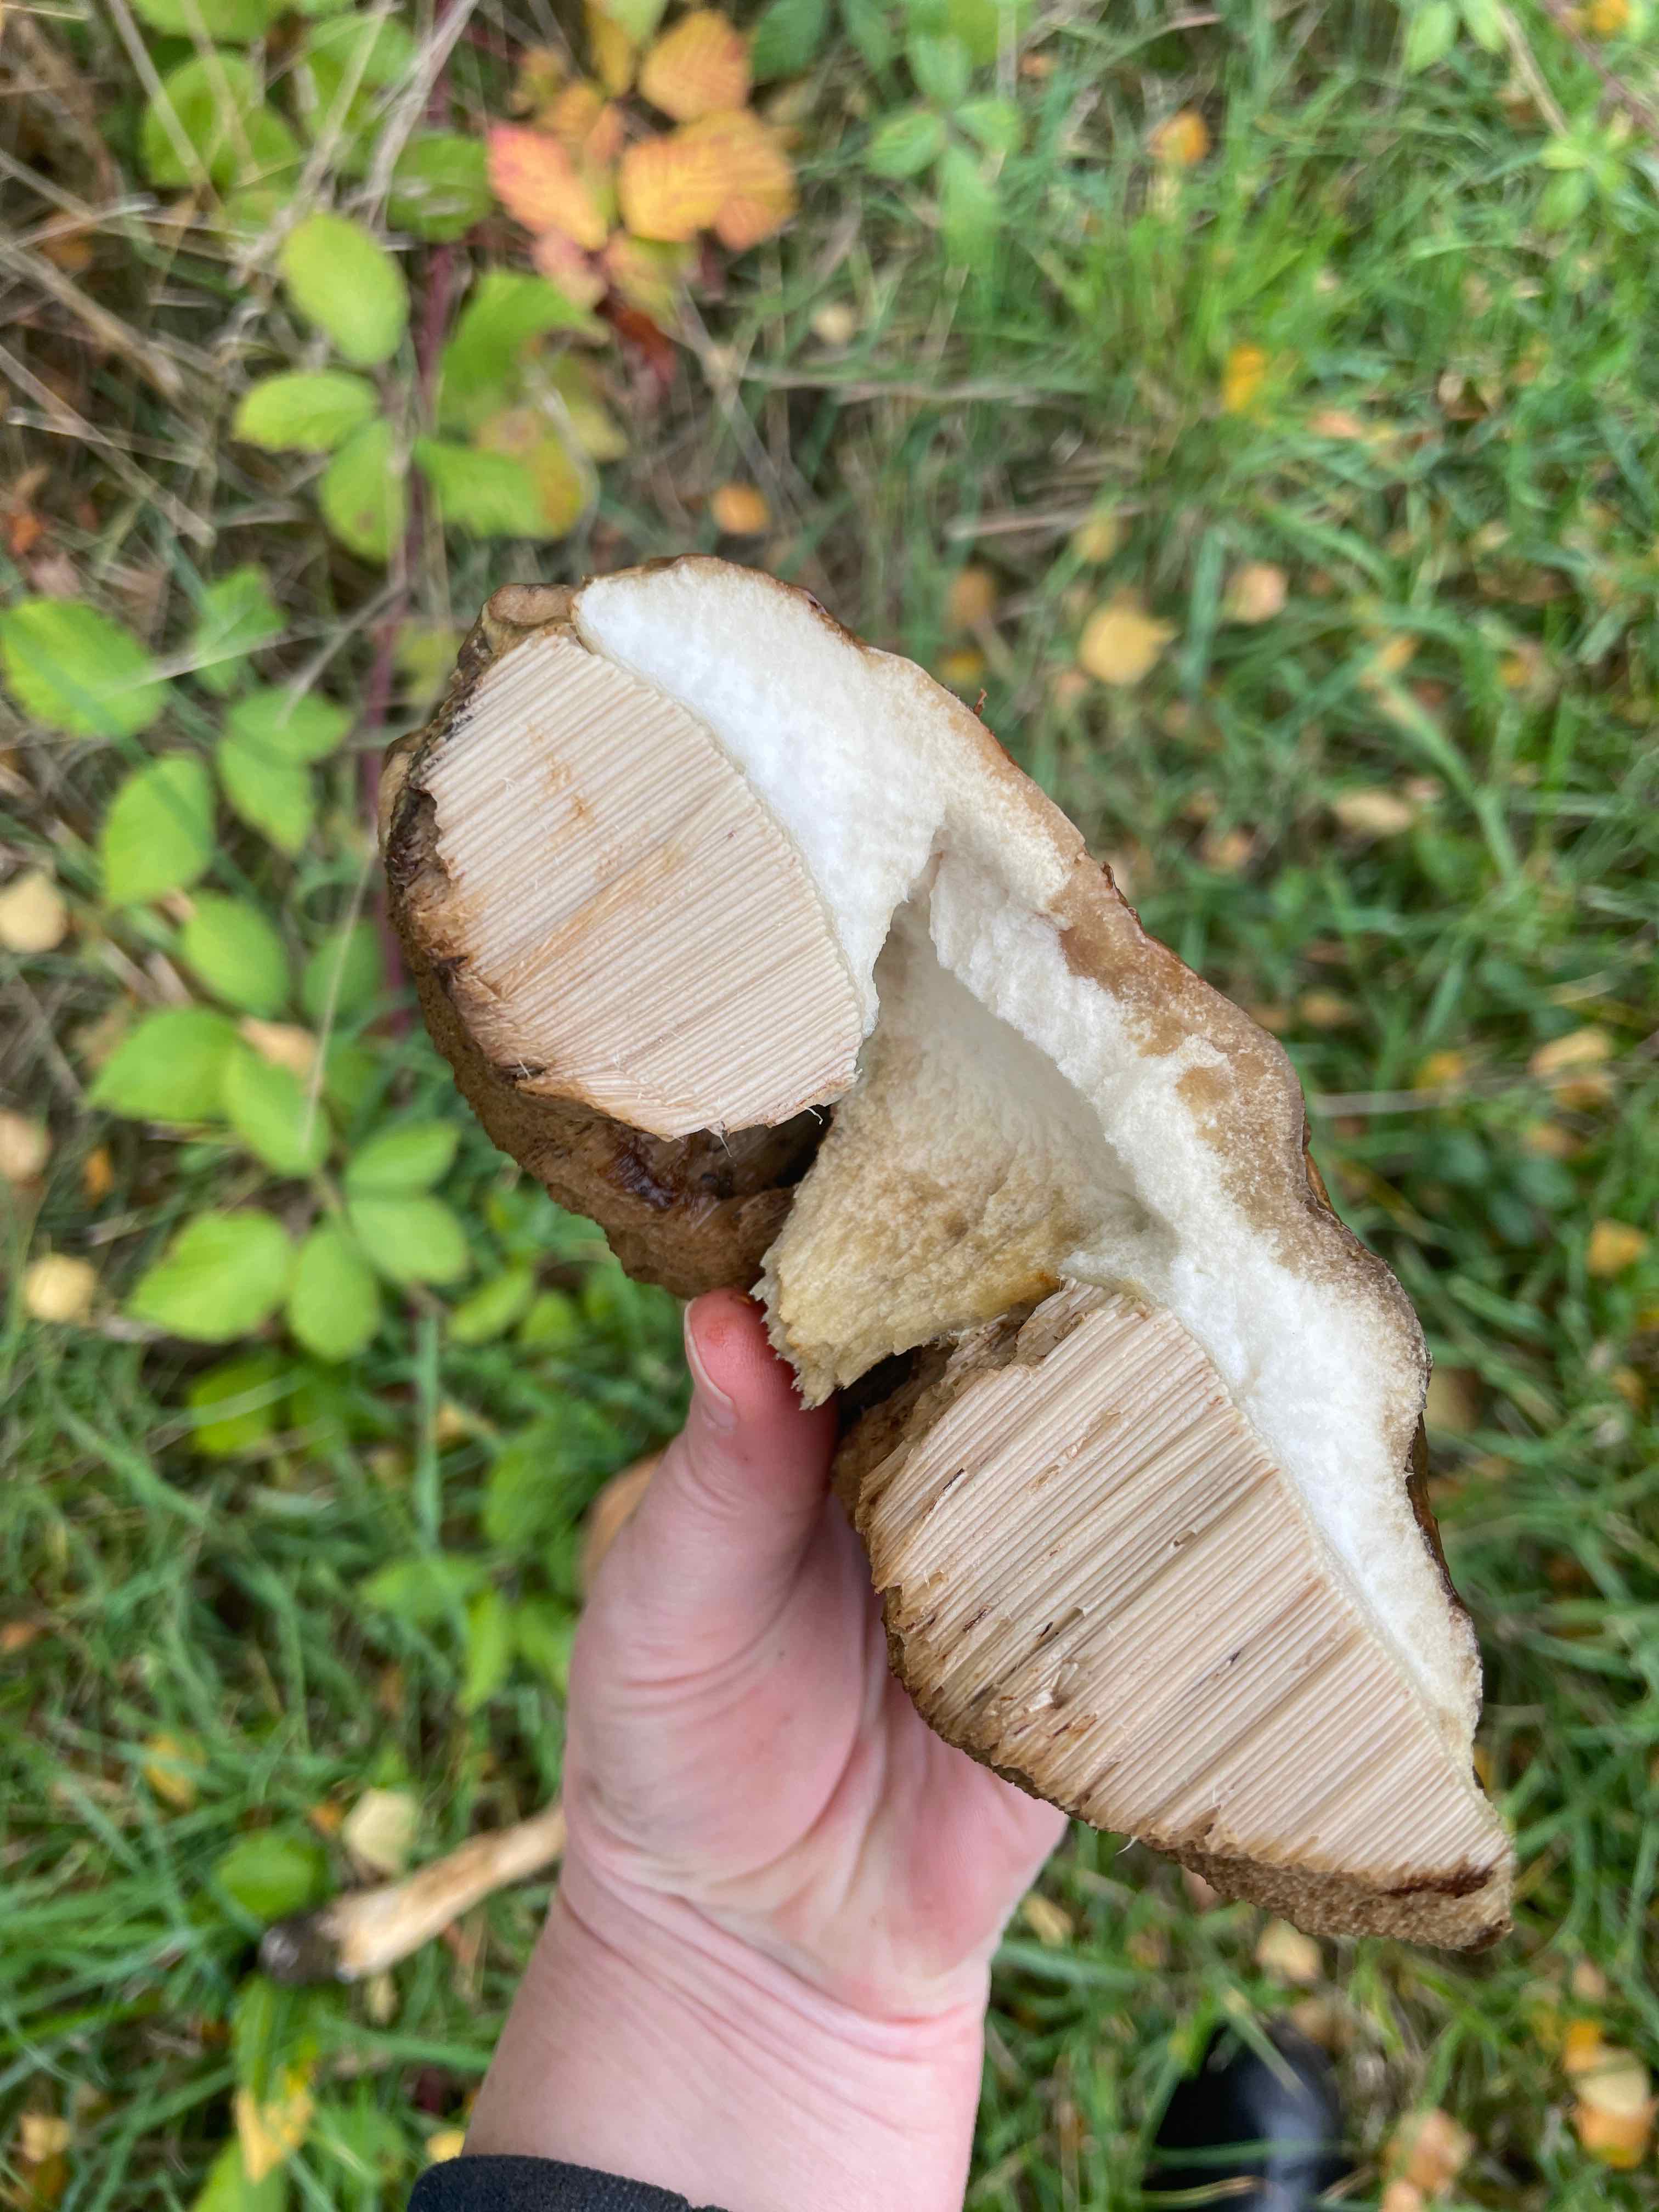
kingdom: Fungi
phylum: Basidiomycota
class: Agaricomycetes
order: Boletales
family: Boletaceae
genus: Leccinum
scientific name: Leccinum
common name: skælrørhat
